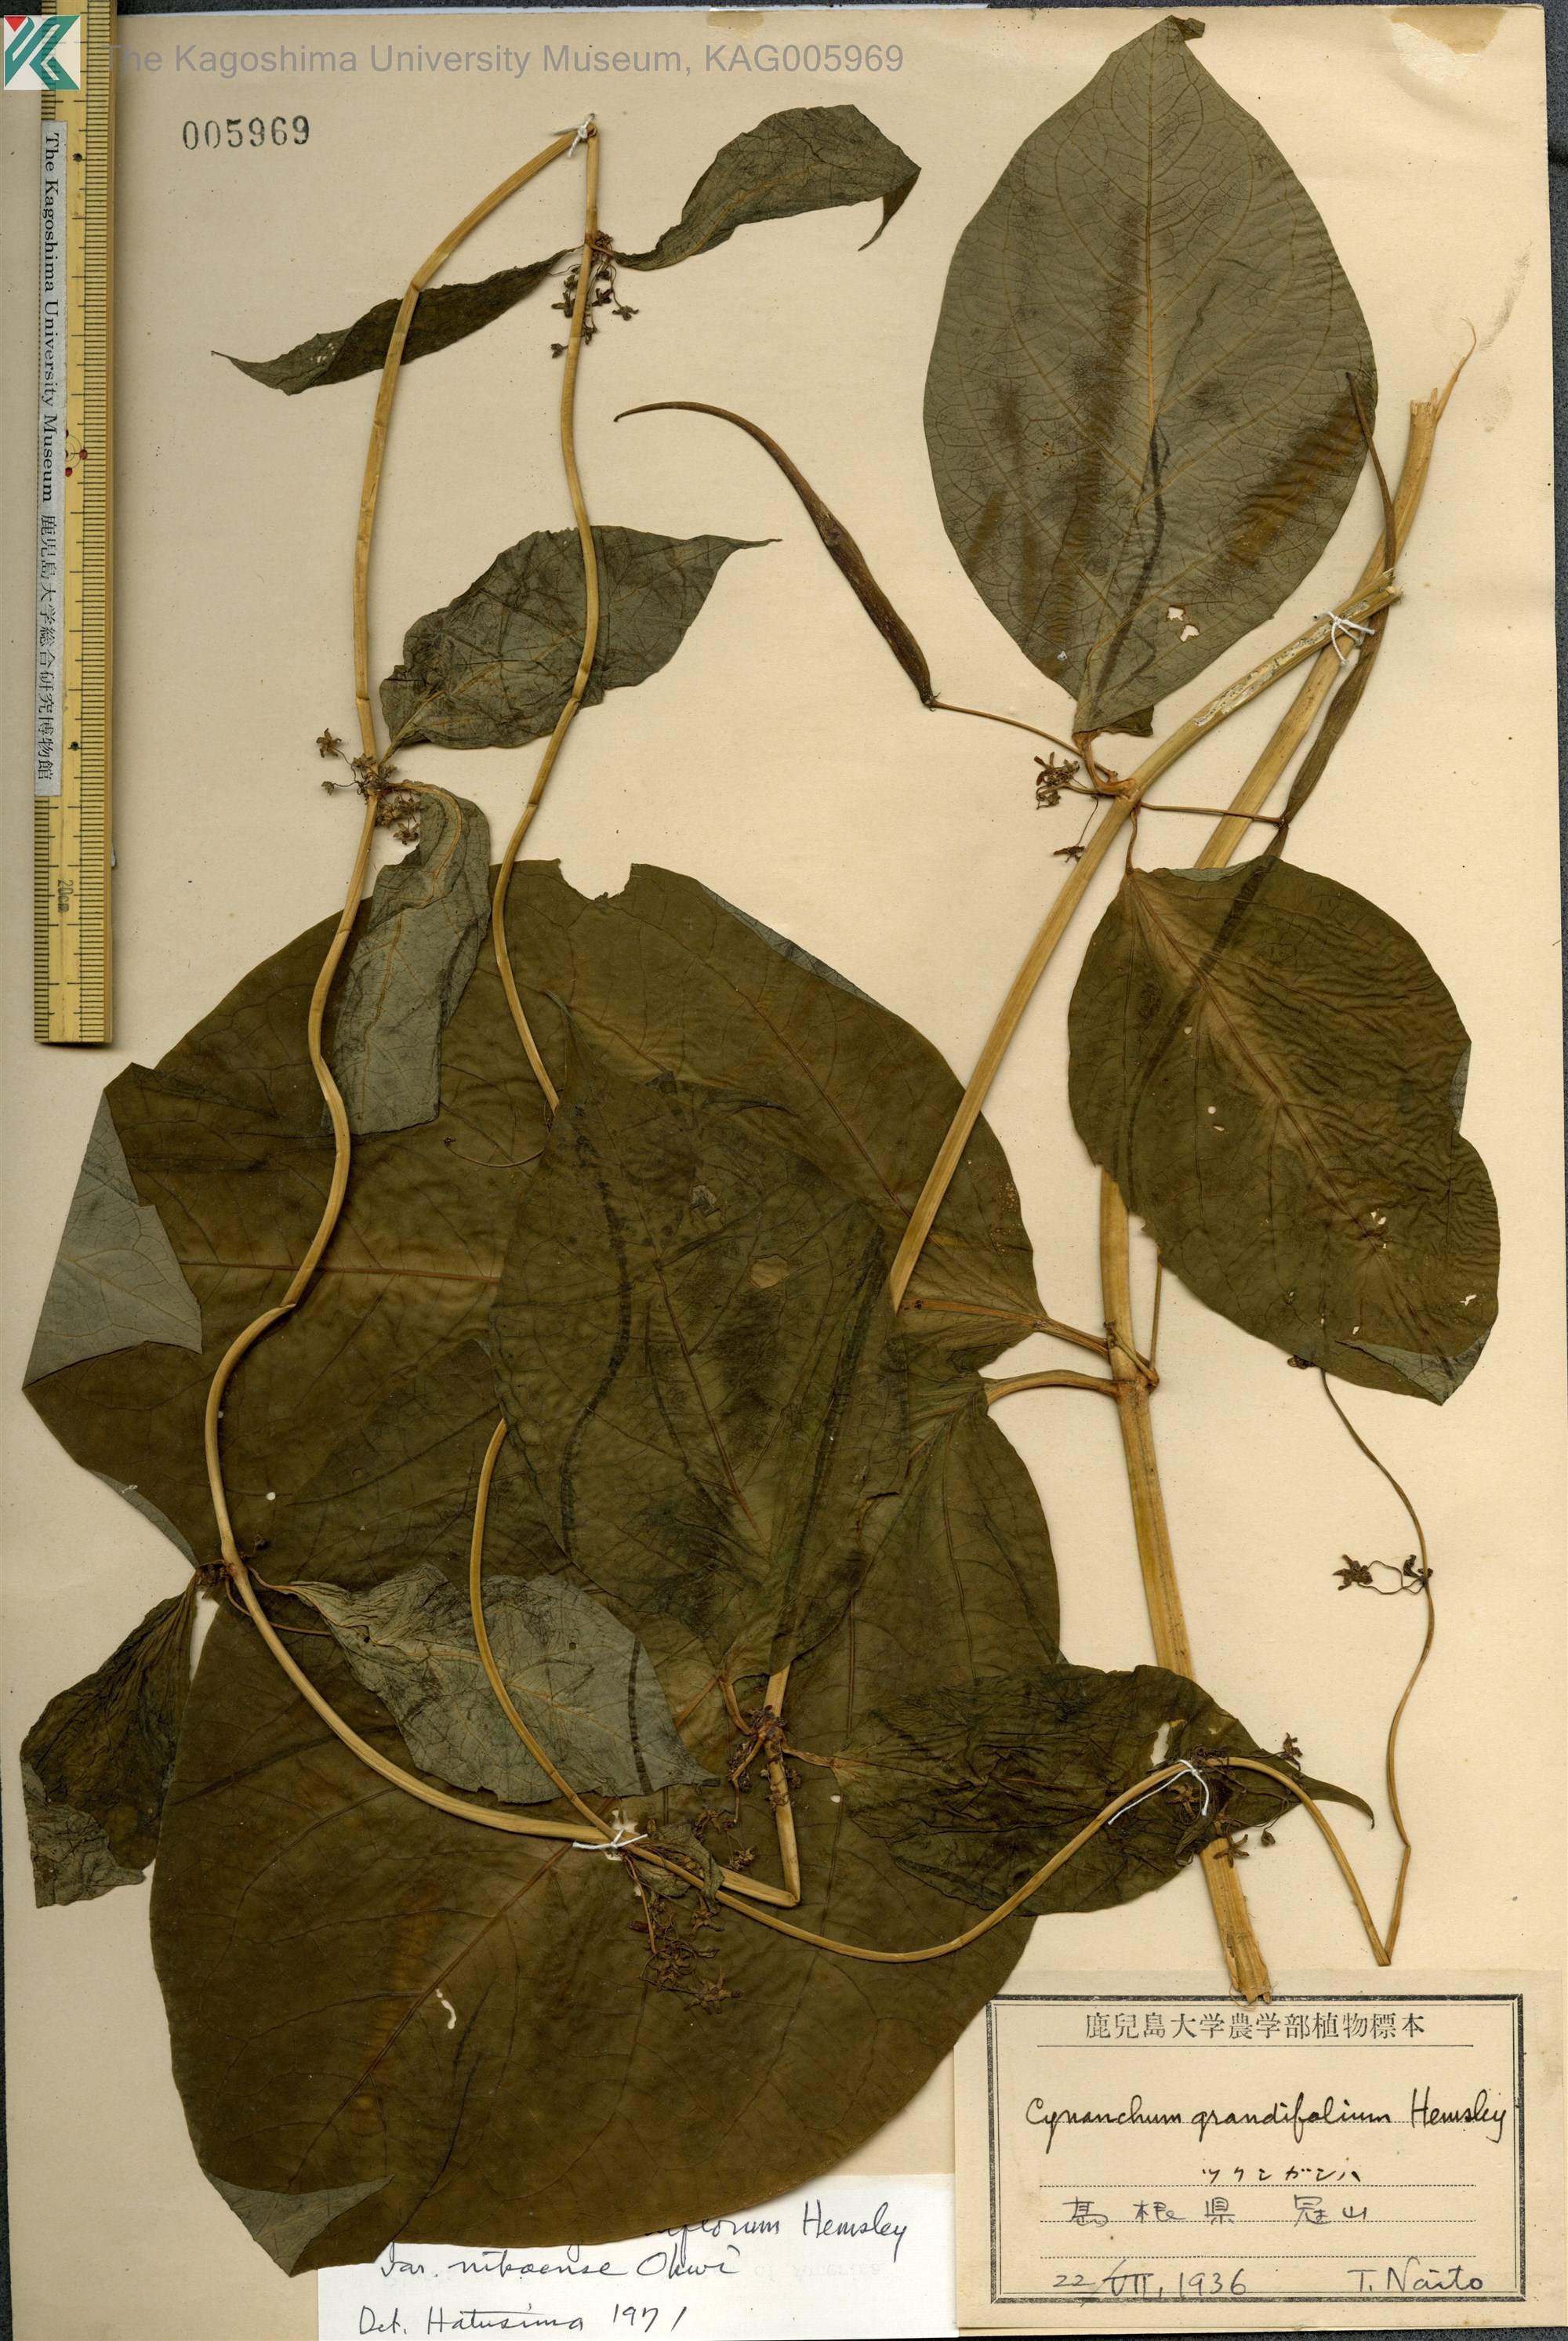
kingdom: Plantae
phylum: Tracheophyta
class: Magnoliopsida
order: Gentianales
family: Apocynaceae
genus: Vincetoxicum
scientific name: Vincetoxicum inamoenum
